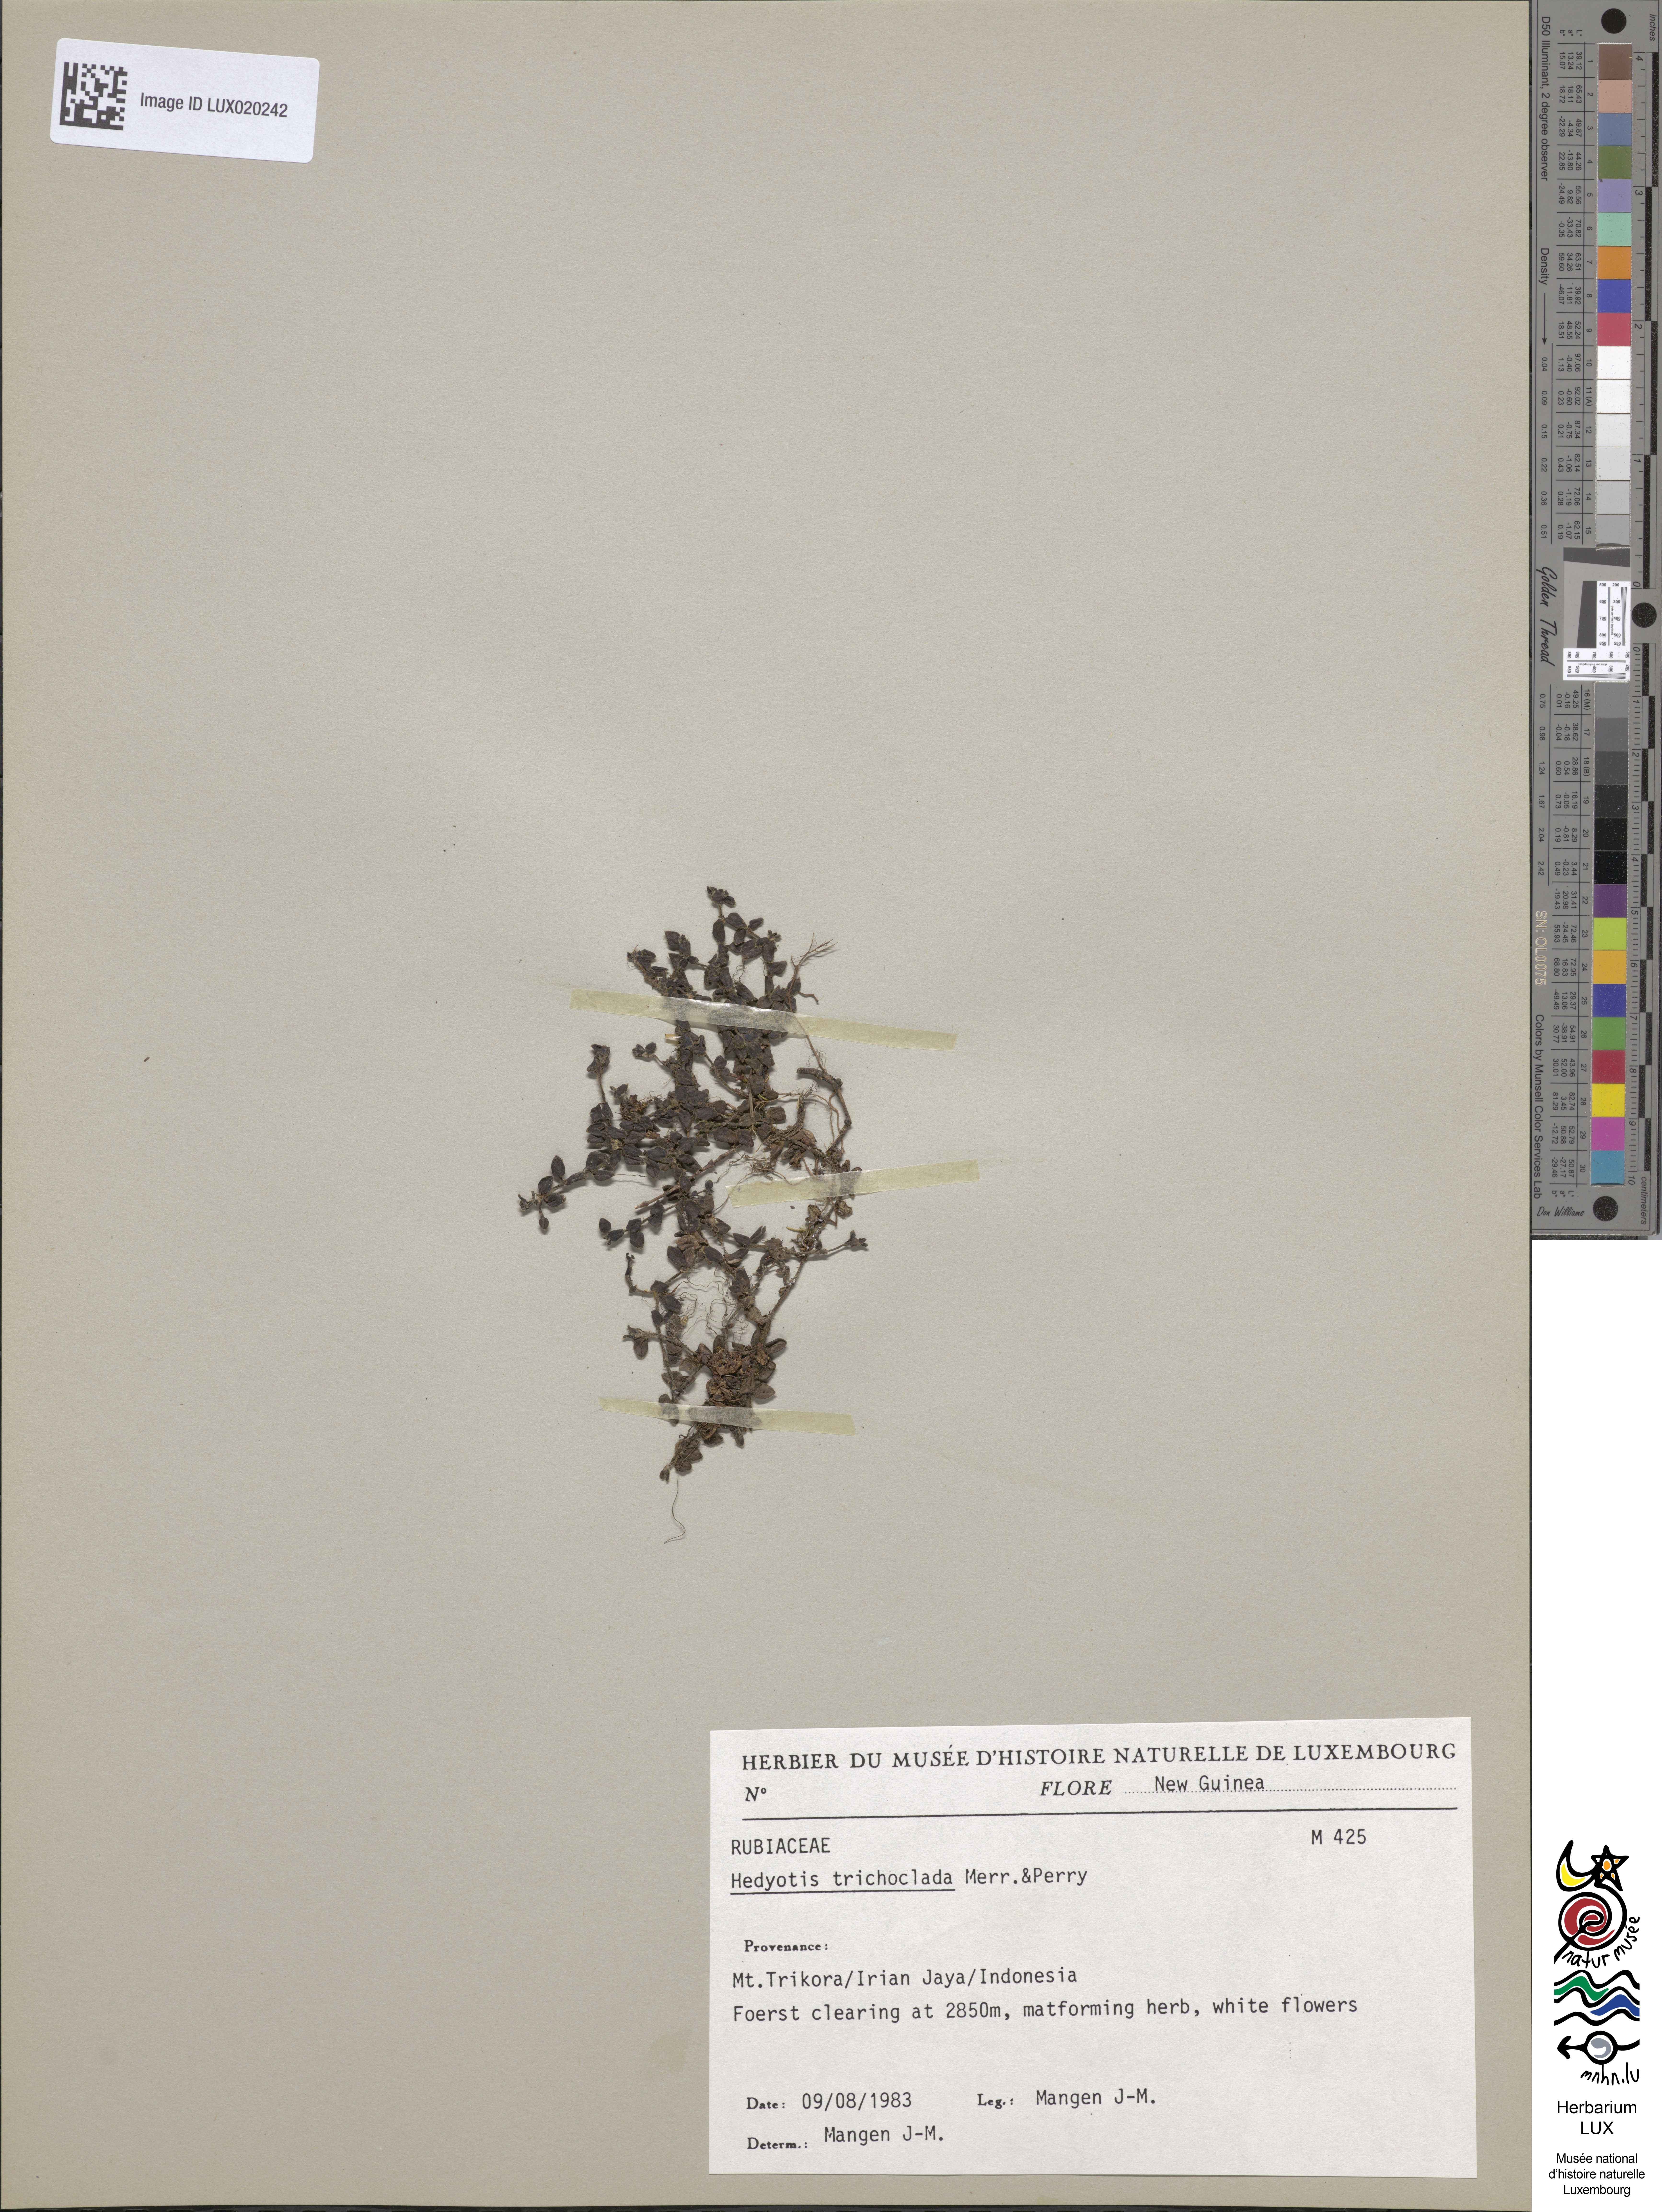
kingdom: Plantae
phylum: Tracheophyta
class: Magnoliopsida
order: Gentianales
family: Rubiaceae
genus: Neanotis
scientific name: Neanotis trichoclada
